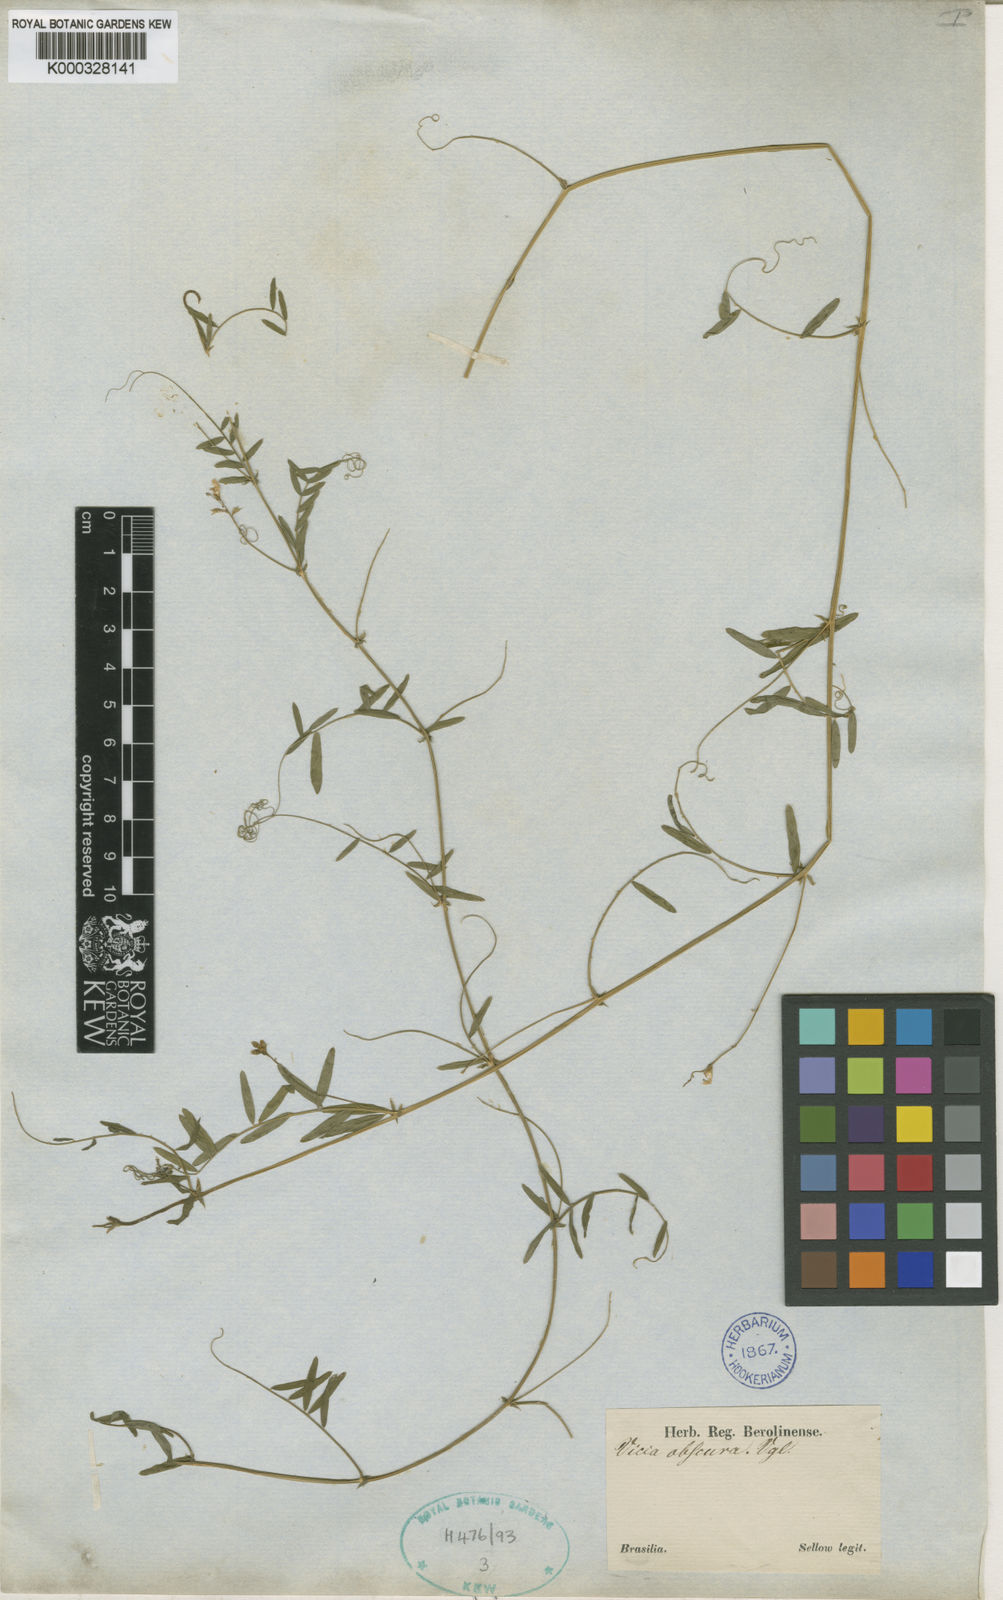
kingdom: Plantae
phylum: Tracheophyta
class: Magnoliopsida
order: Fabales
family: Fabaceae
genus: Vicia
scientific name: Vicia montevidensis
